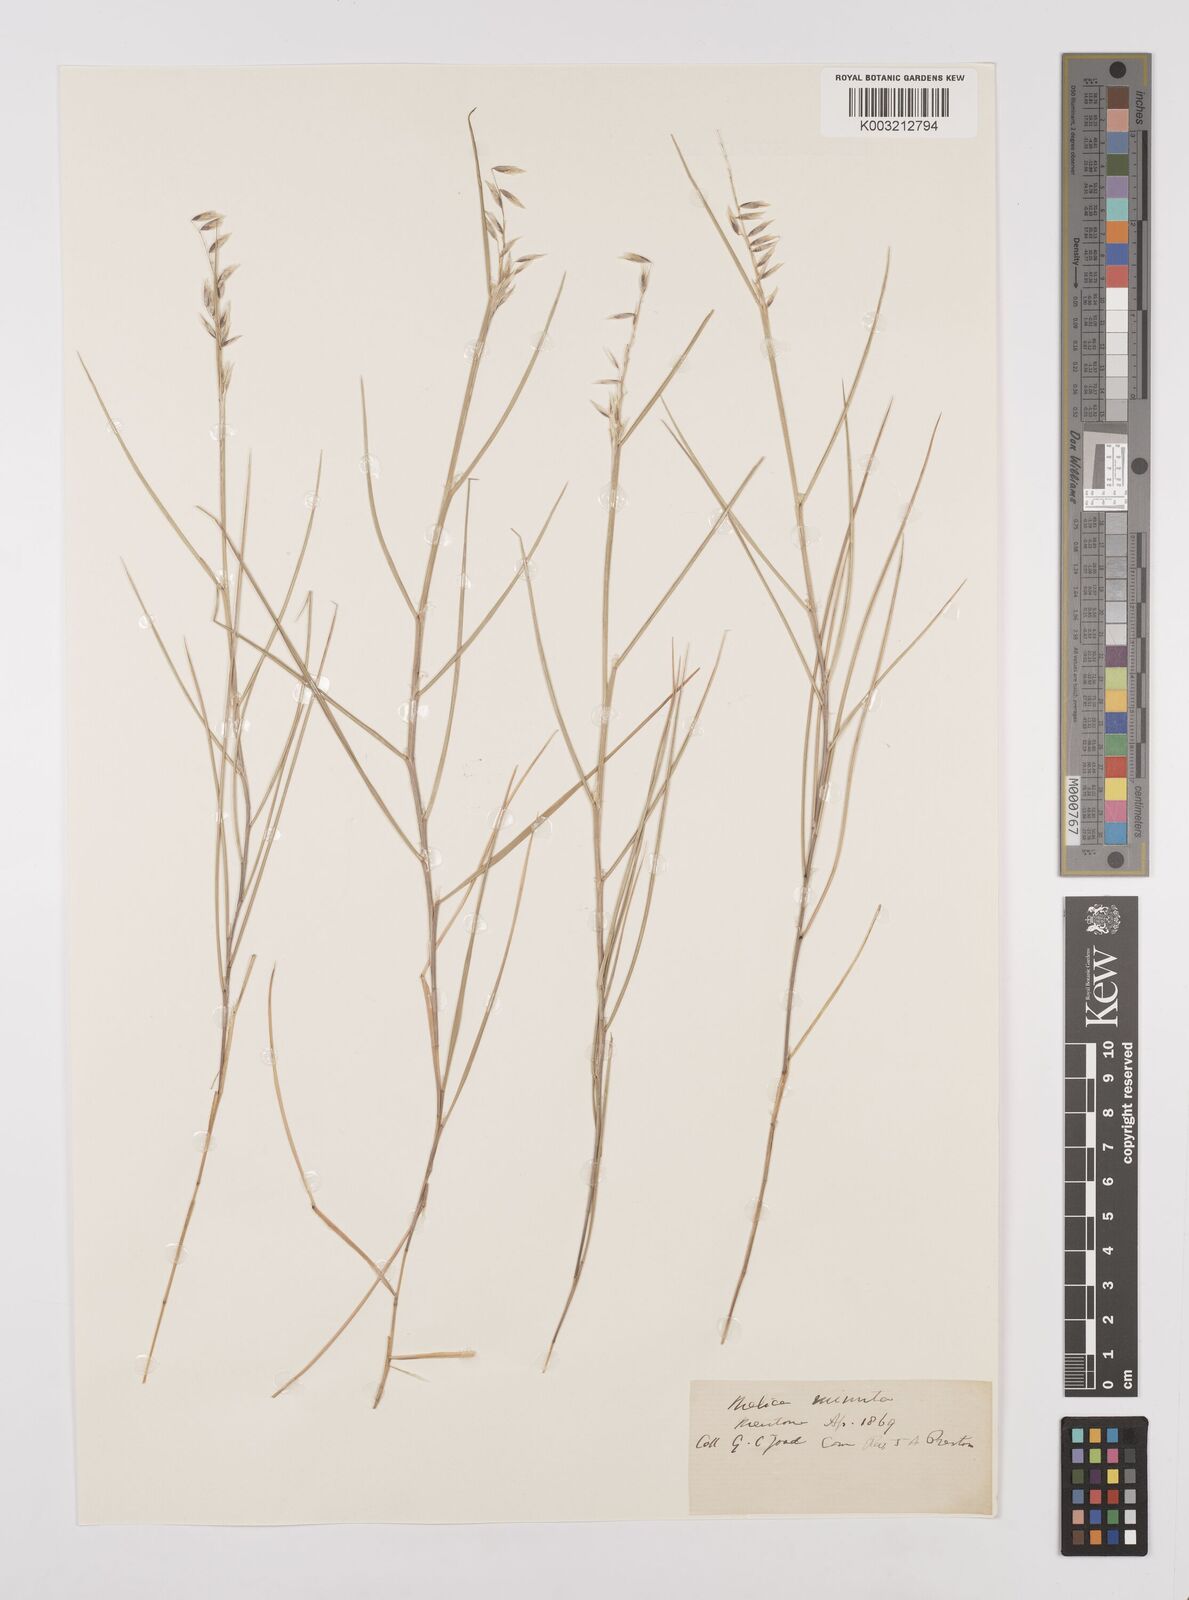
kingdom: Plantae
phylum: Tracheophyta
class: Liliopsida
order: Poales
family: Poaceae
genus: Melica
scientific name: Melica minuta
